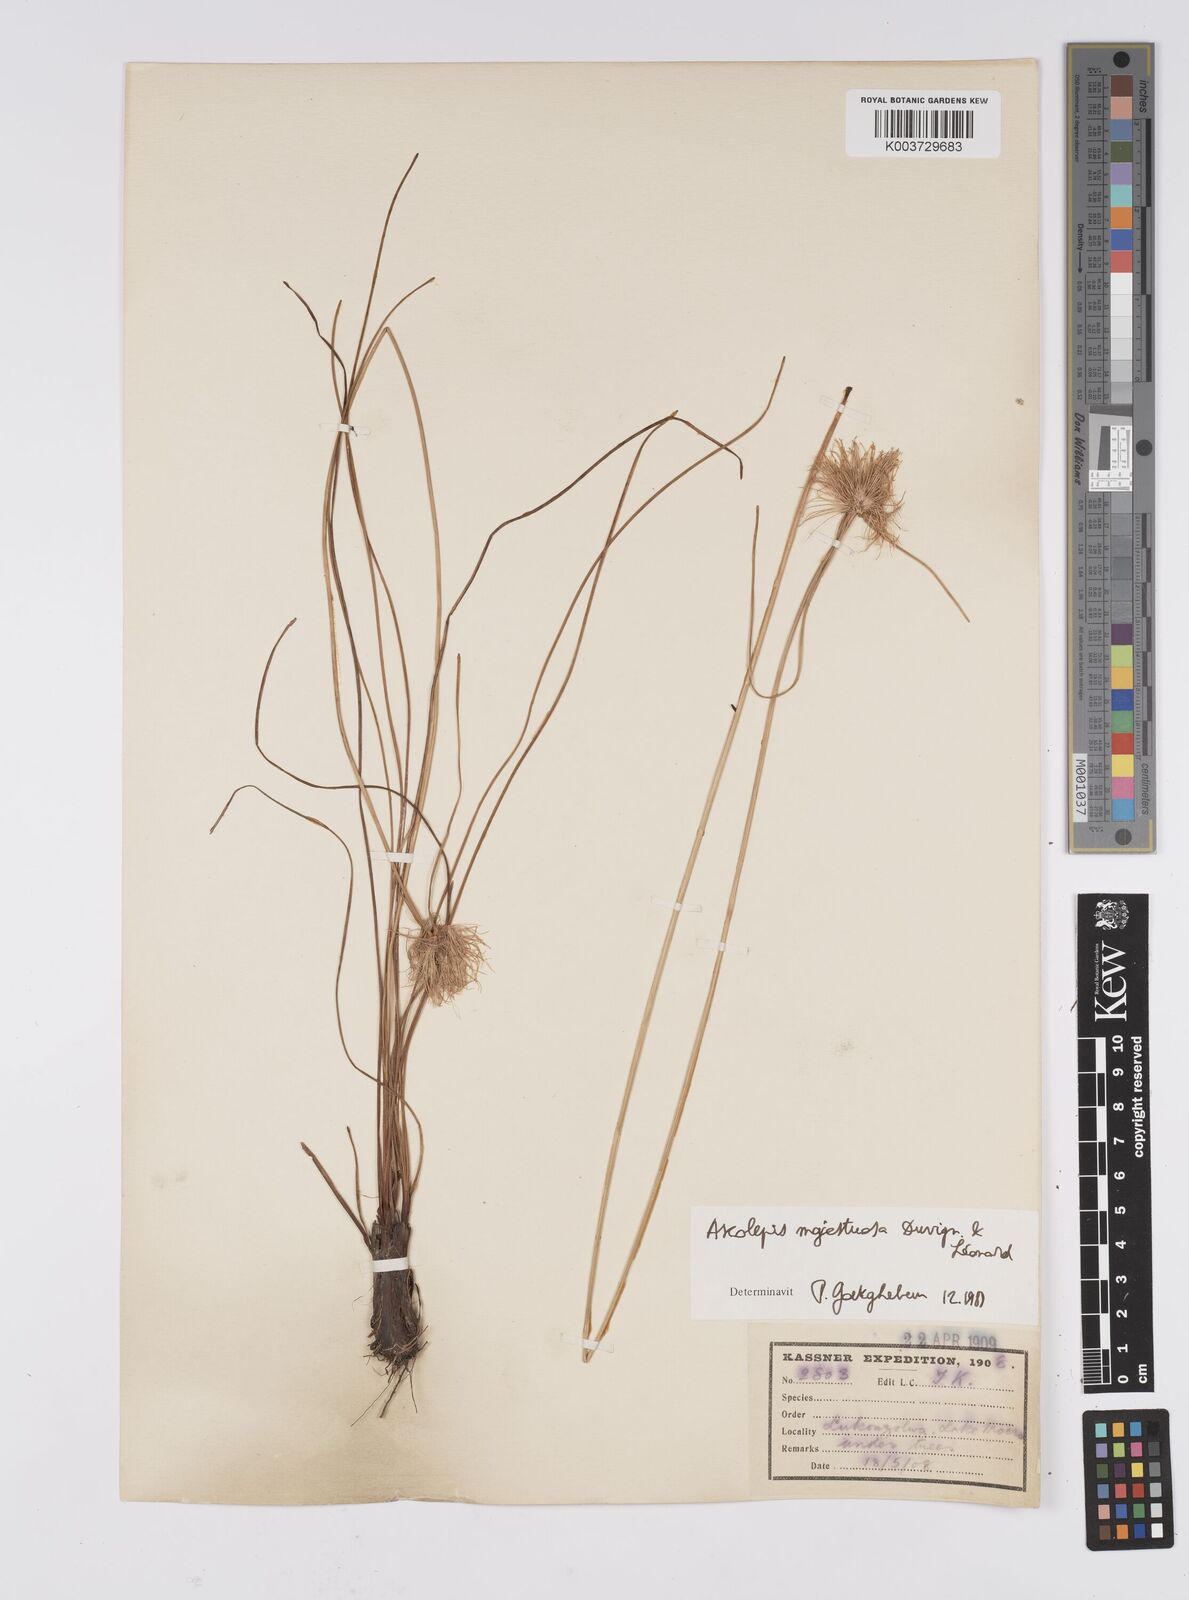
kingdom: Plantae
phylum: Tracheophyta
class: Liliopsida
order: Poales
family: Cyperaceae
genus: Cyperus
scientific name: Cyperus majestuosus
